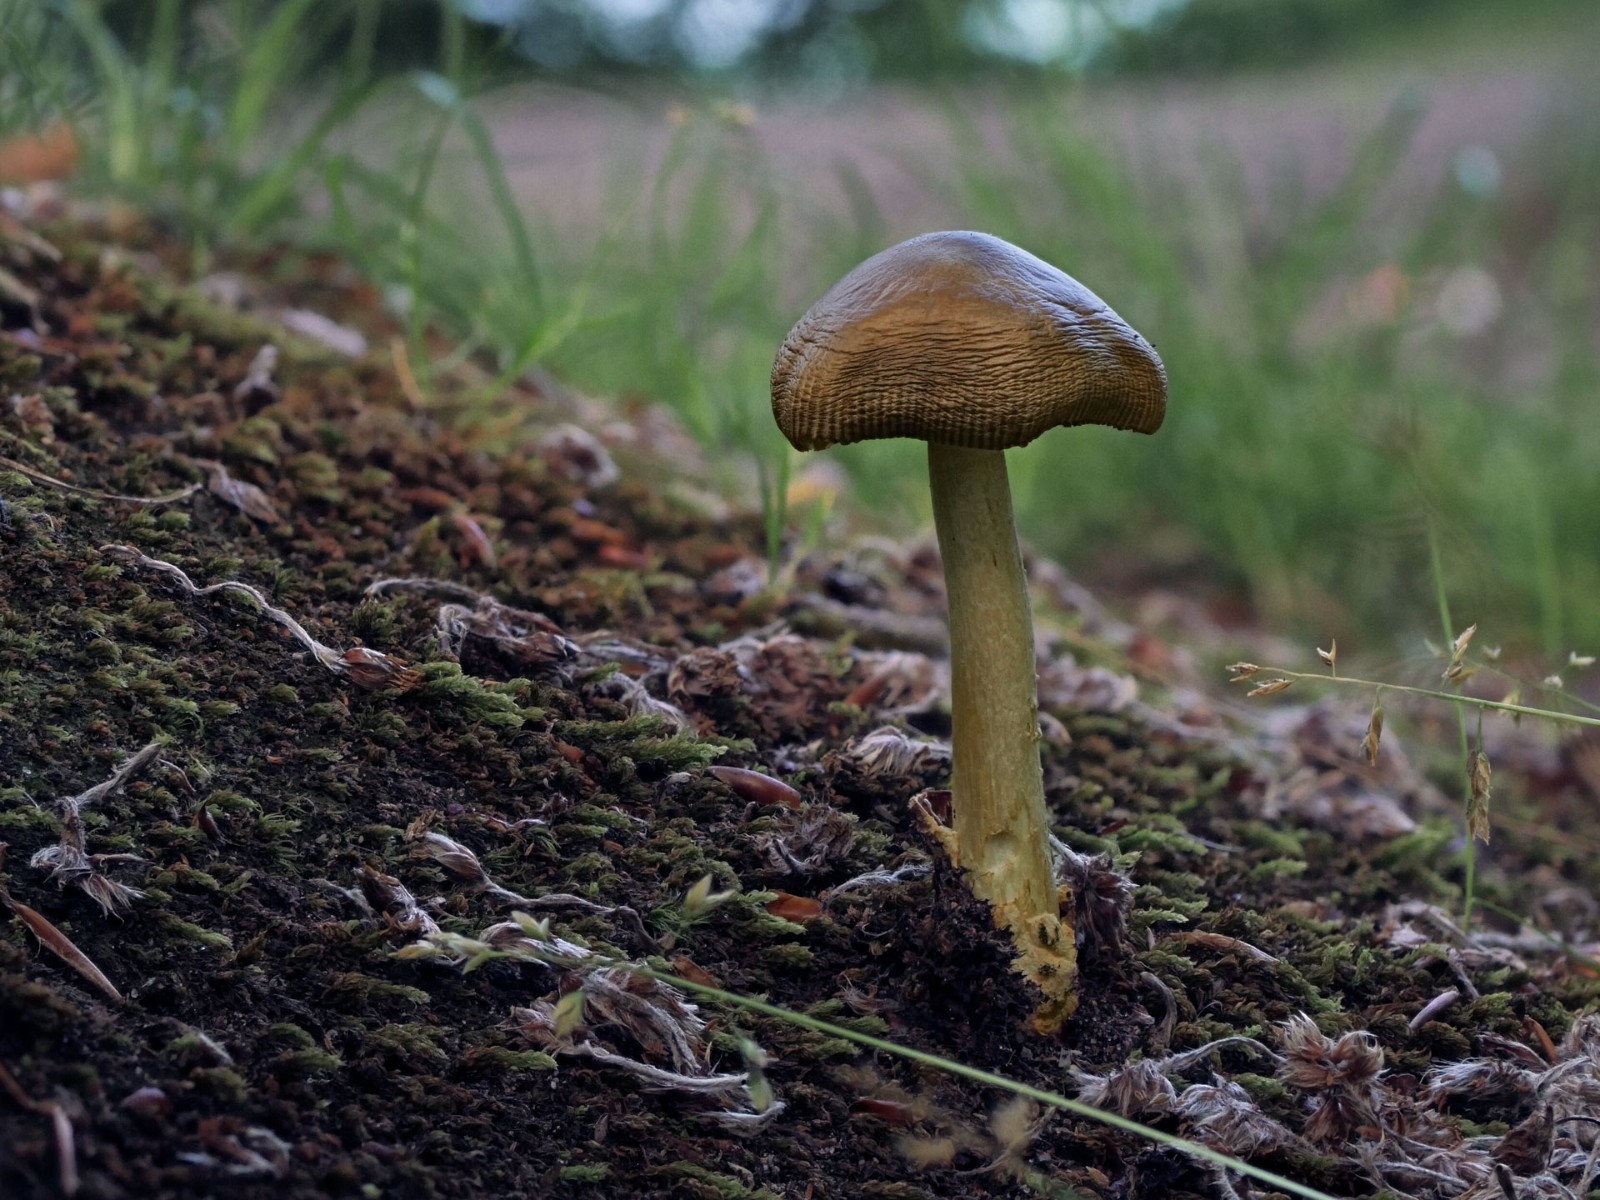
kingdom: Fungi
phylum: Basidiomycota
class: Agaricomycetes
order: Agaricales
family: Amanitaceae
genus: Amanita
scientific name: Amanita fulva
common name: brun kam-fluesvamp
